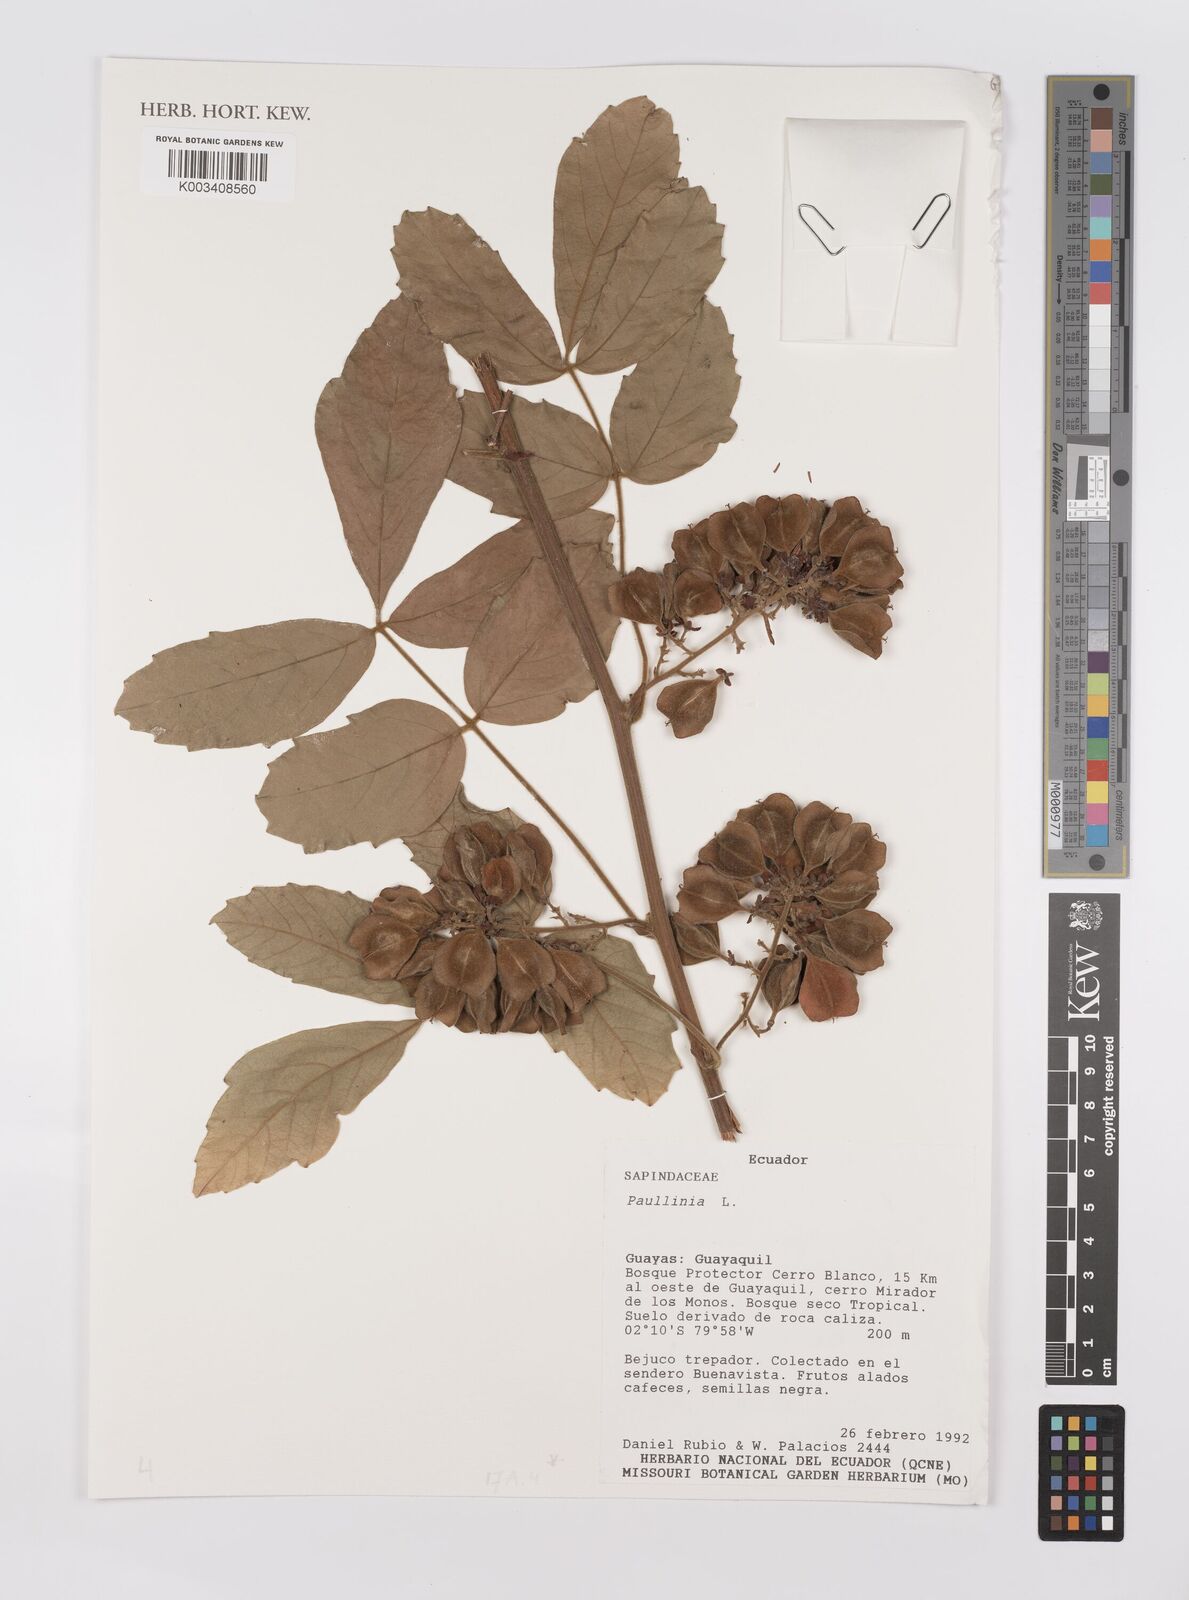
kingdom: Plantae
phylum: Tracheophyta
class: Magnoliopsida
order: Sapindales
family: Sapindaceae
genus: Paullinia
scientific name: Paullinia elegans
